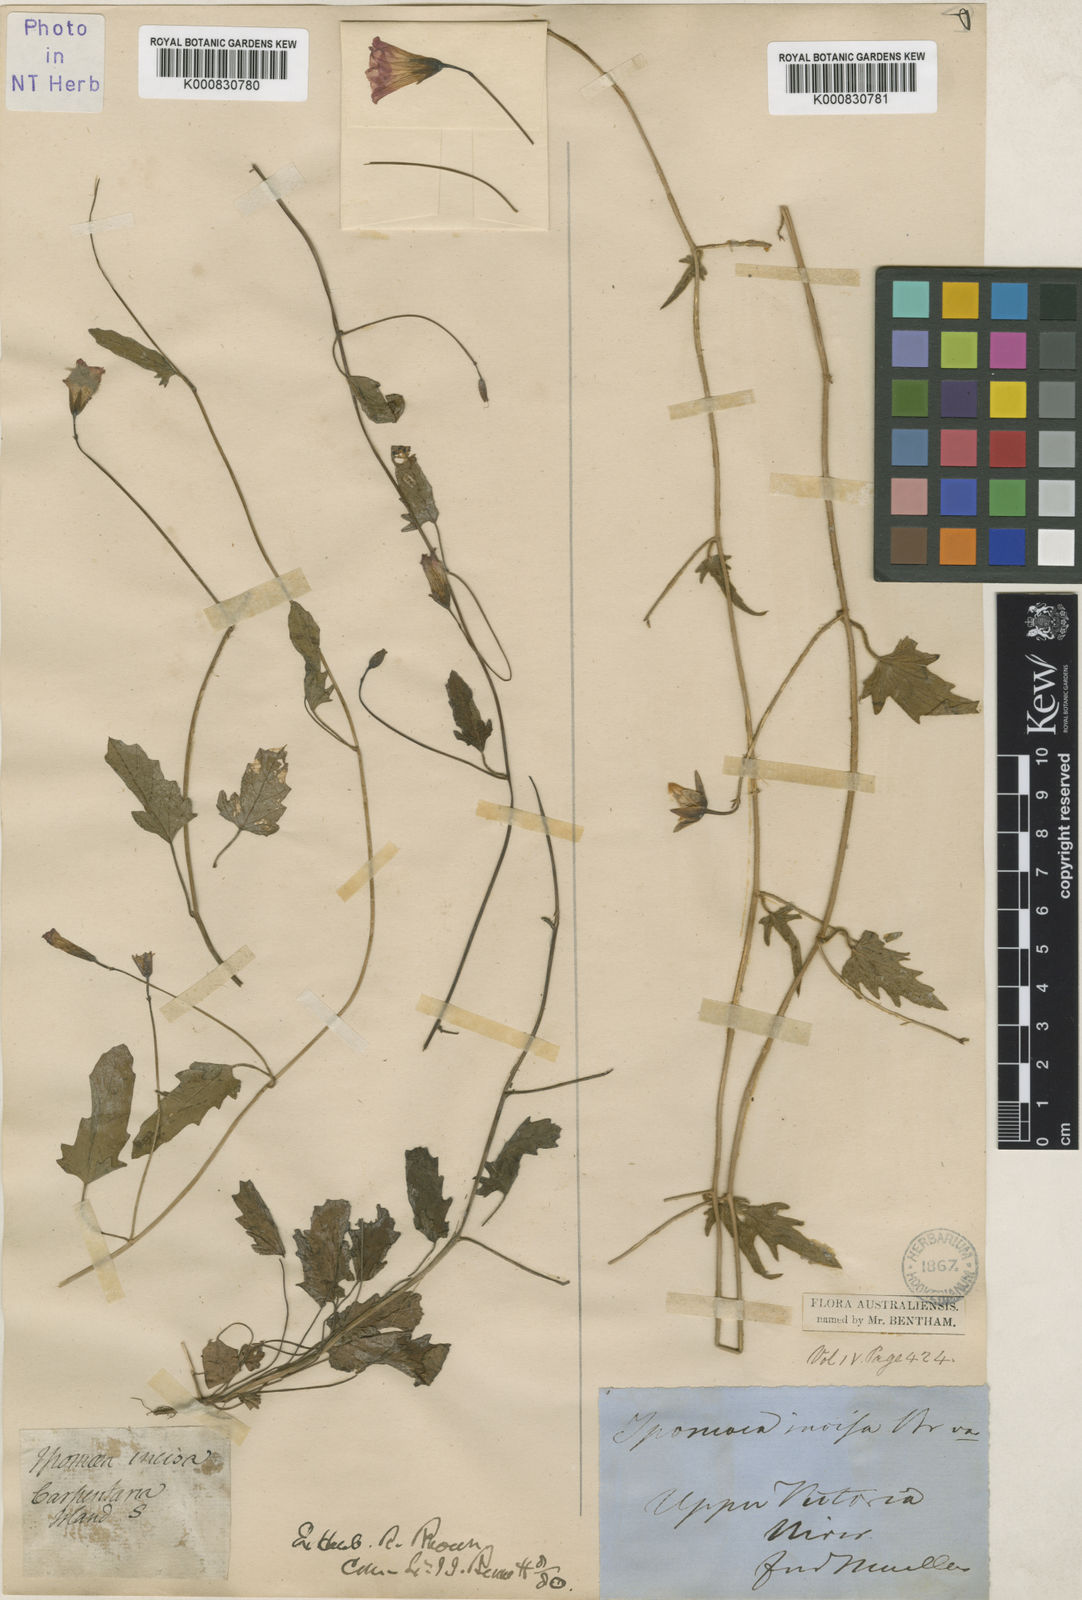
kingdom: Plantae
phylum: Tracheophyta
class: Magnoliopsida
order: Solanales
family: Convolvulaceae
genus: Merremia
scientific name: Merremia incisa
